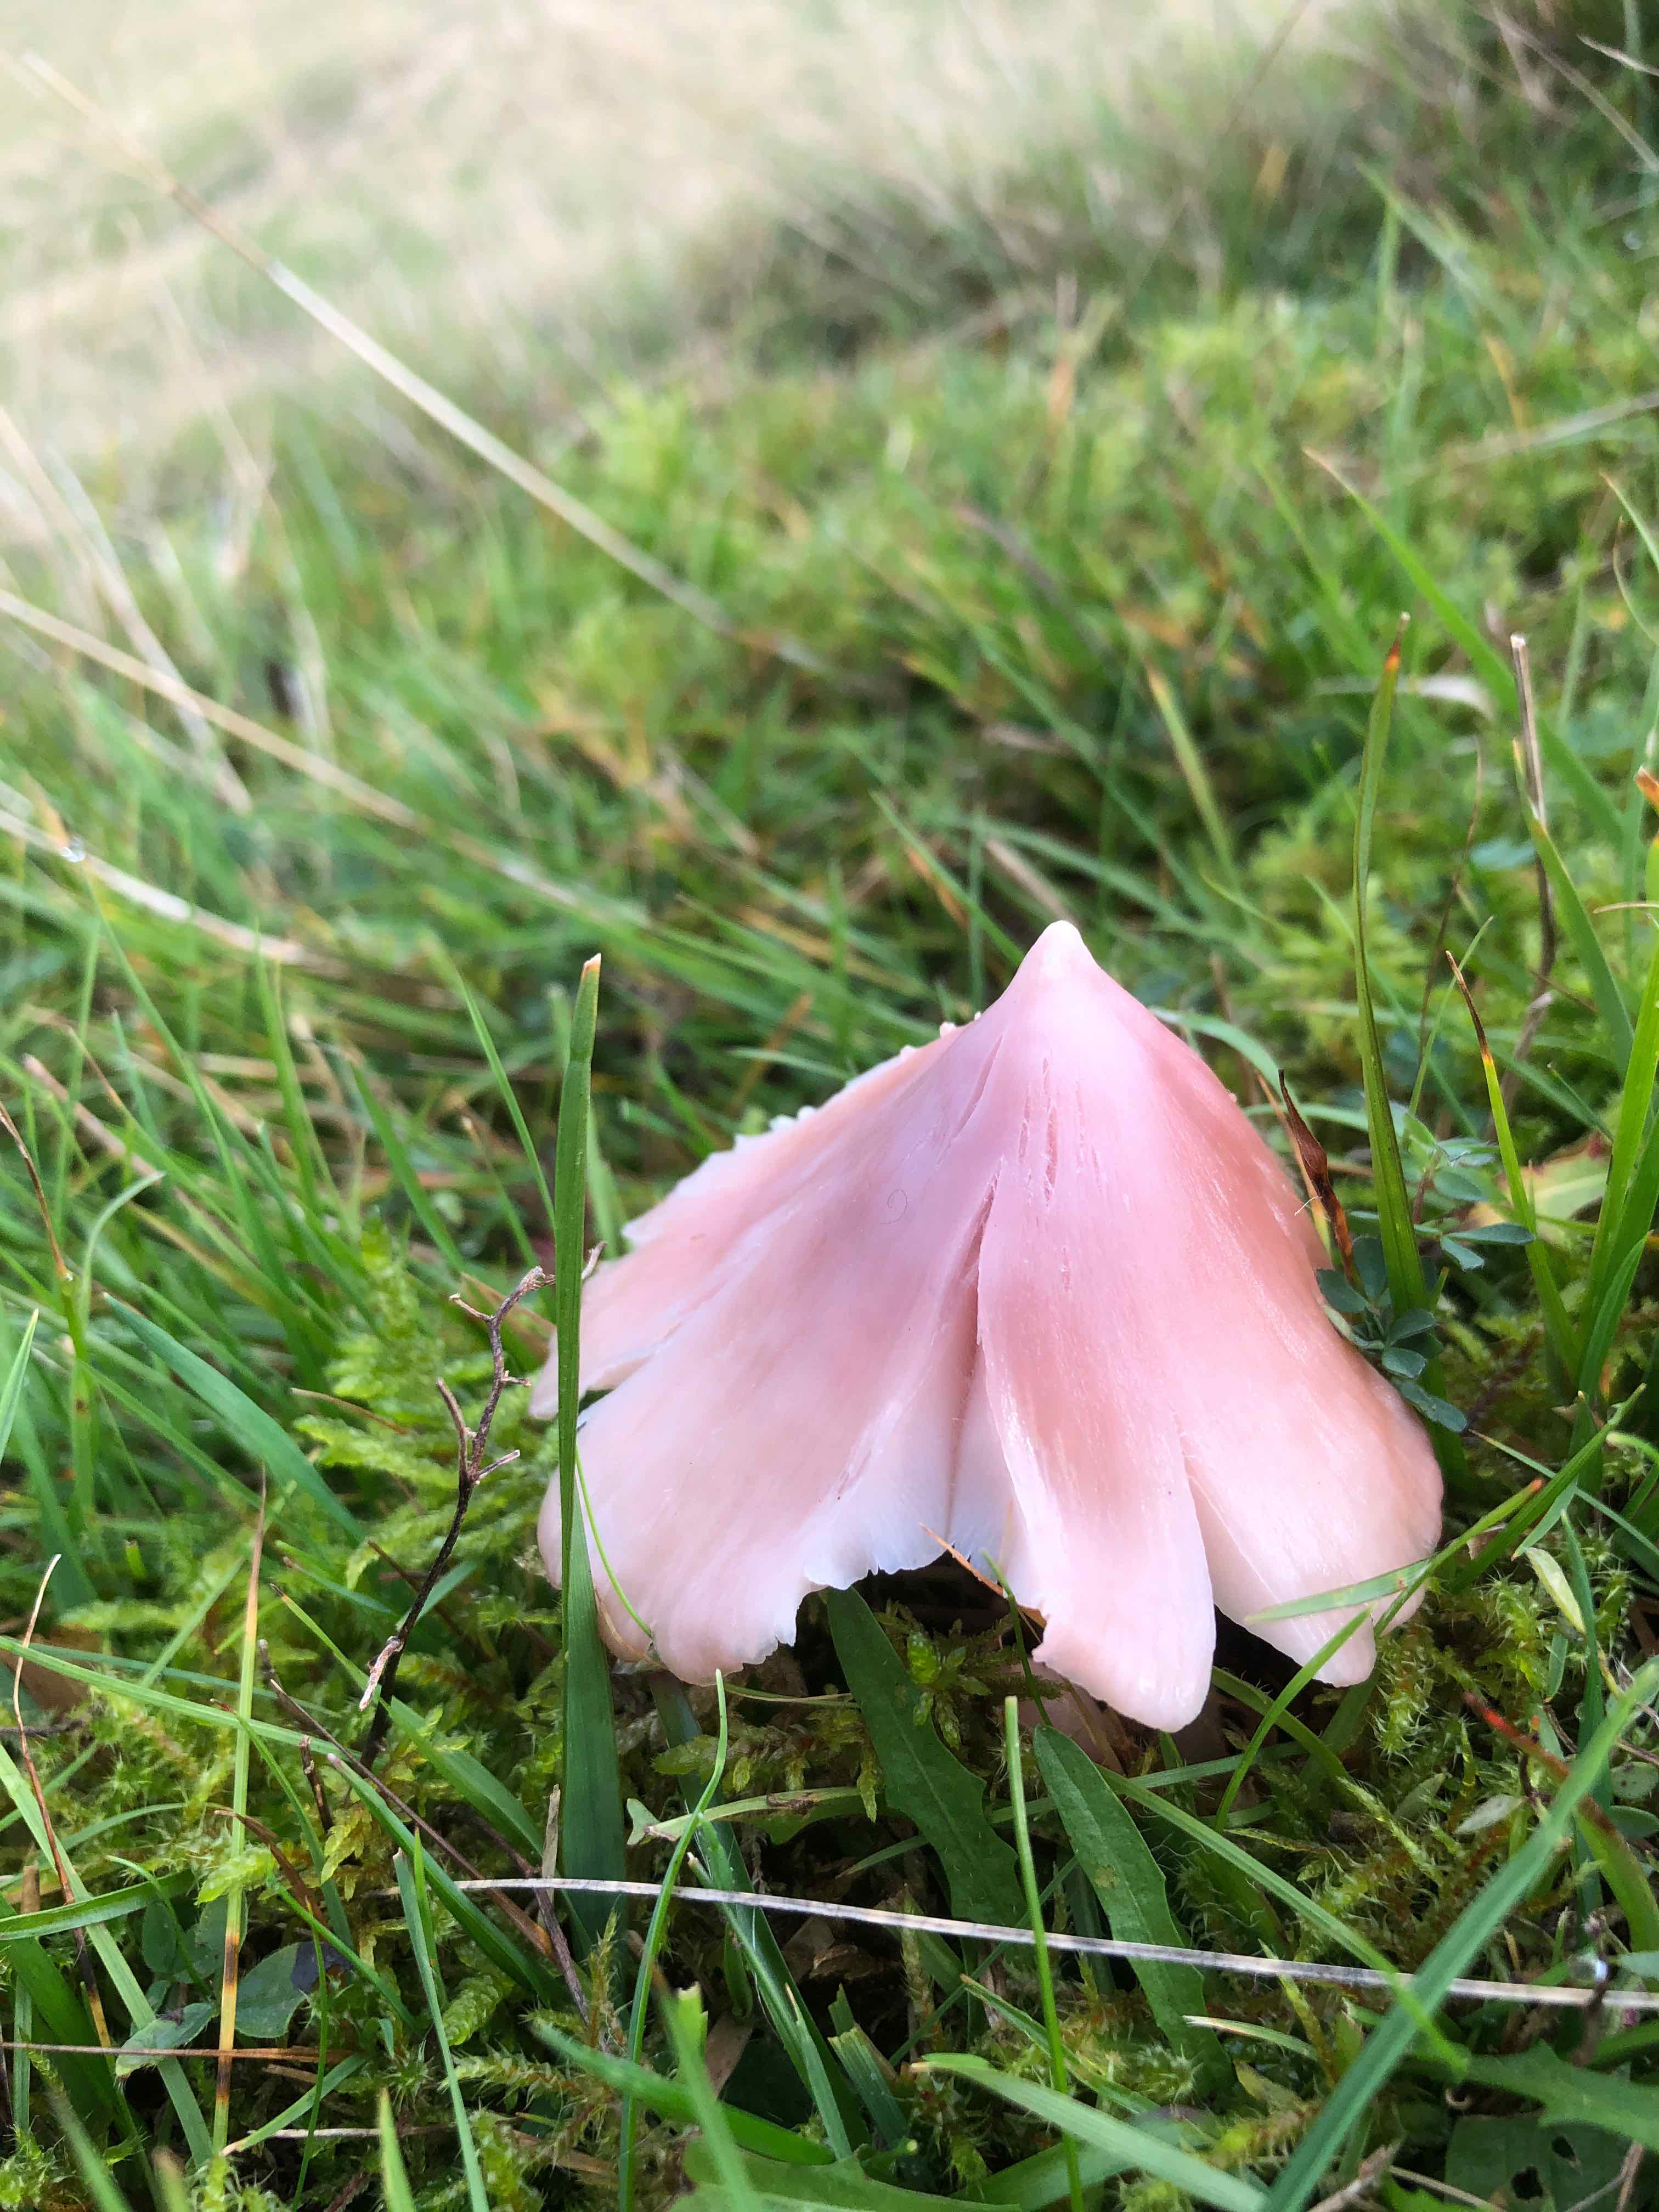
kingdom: Fungi
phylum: Basidiomycota
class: Agaricomycetes
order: Agaricales
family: Hygrophoraceae
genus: Porpolomopsis
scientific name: Porpolomopsis calyptriformis
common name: rosenrød vokshat
